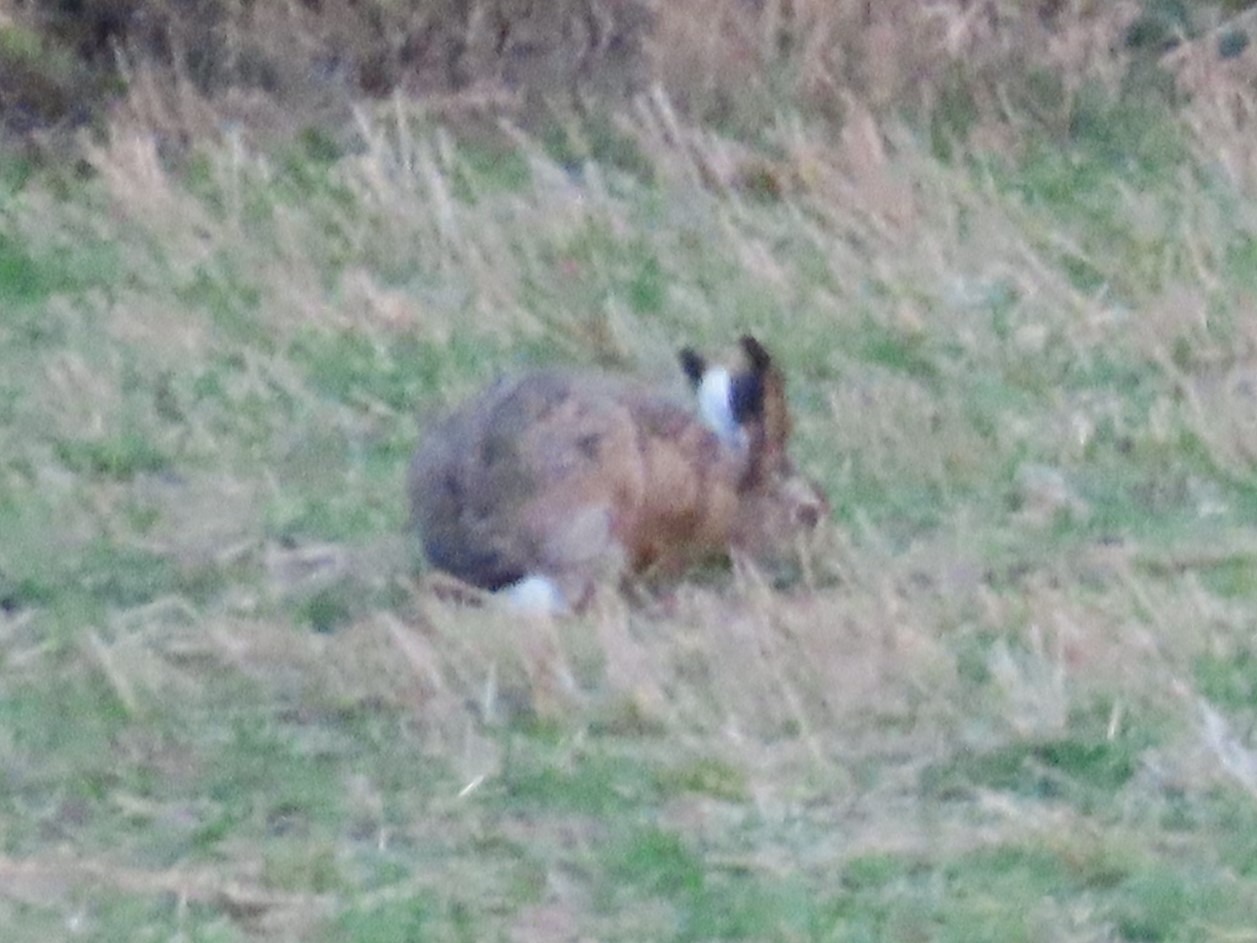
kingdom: Animalia
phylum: Chordata
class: Mammalia
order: Lagomorpha
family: Leporidae
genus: Lepus
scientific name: Lepus europaeus
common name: Hare
